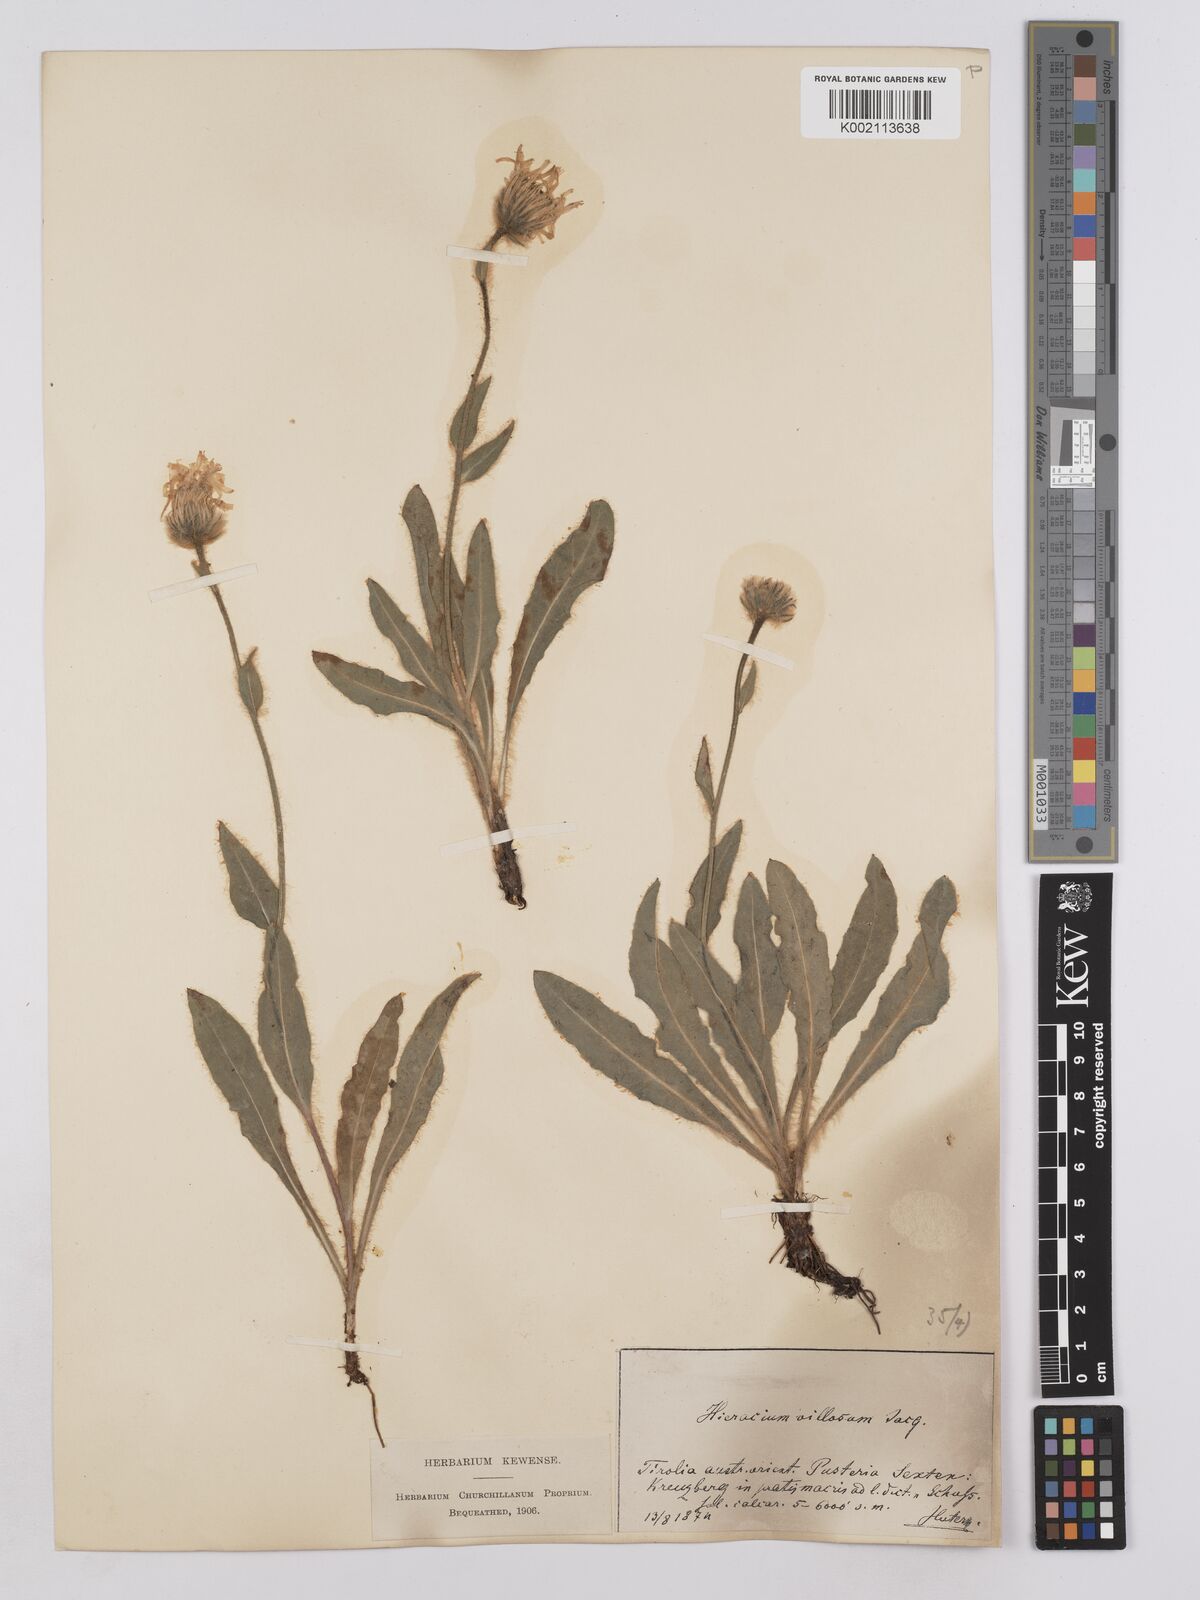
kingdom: Plantae
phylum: Tracheophyta
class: Magnoliopsida
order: Asterales
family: Asteraceae
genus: Hieracium
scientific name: Hieracium villosum
